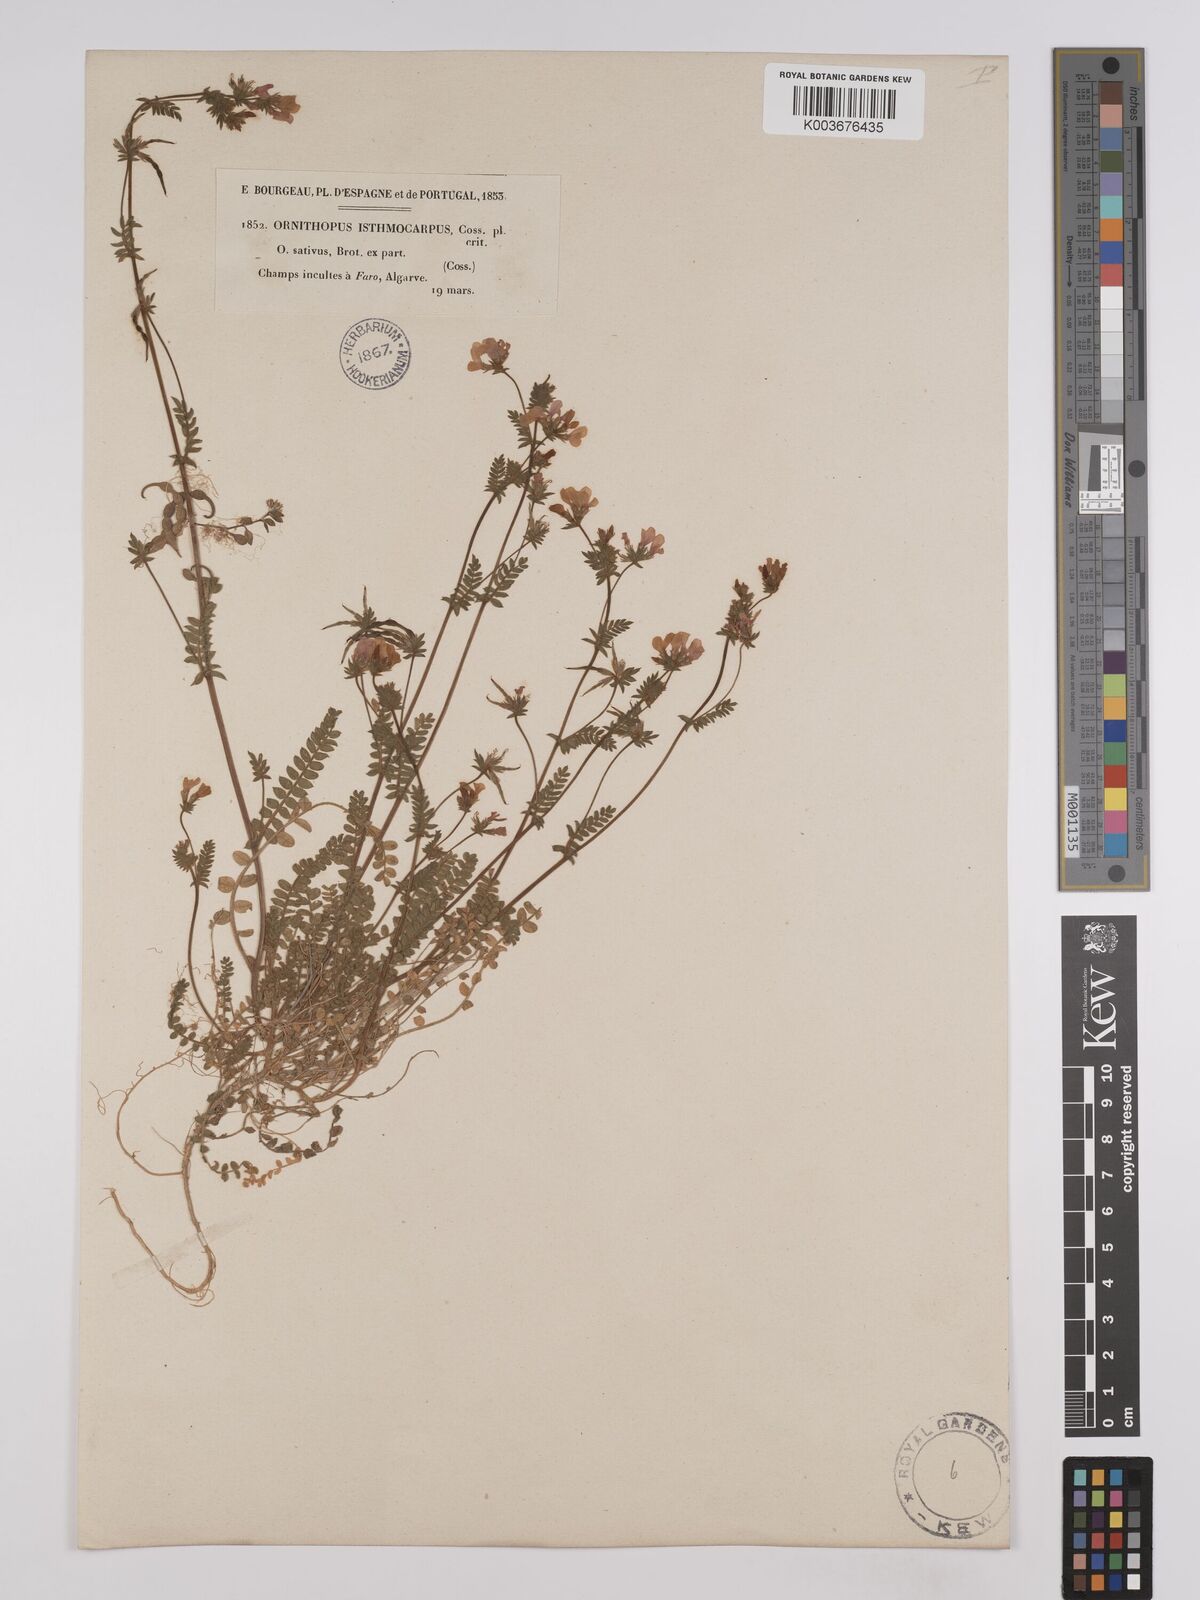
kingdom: Plantae
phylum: Tracheophyta
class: Magnoliopsida
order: Fabales
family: Fabaceae
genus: Ornithopus
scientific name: Ornithopus sativus
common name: Serradella
